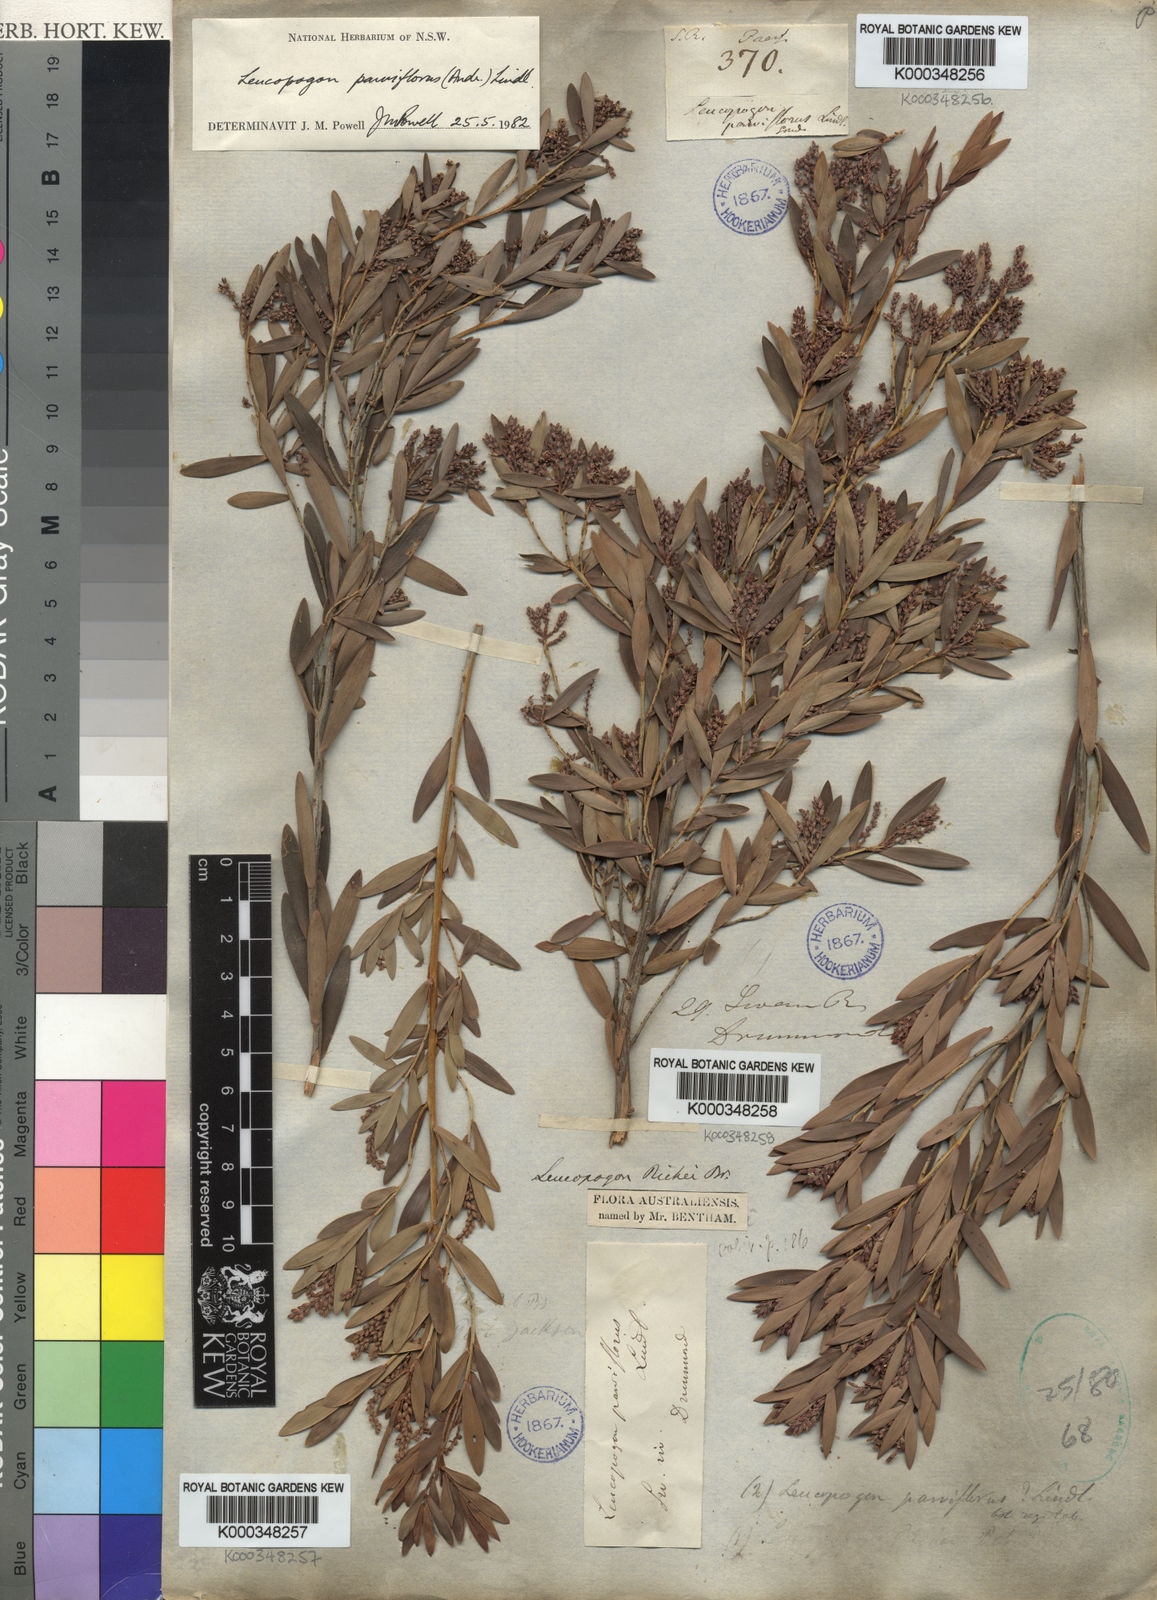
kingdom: Plantae
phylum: Tracheophyta
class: Magnoliopsida
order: Ericales
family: Ericaceae
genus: Leptecophylla
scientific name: Leptecophylla parvifolia
